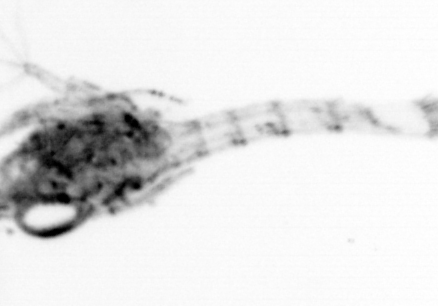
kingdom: Animalia
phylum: Arthropoda
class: Malacostraca
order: Decapoda
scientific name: Decapoda
